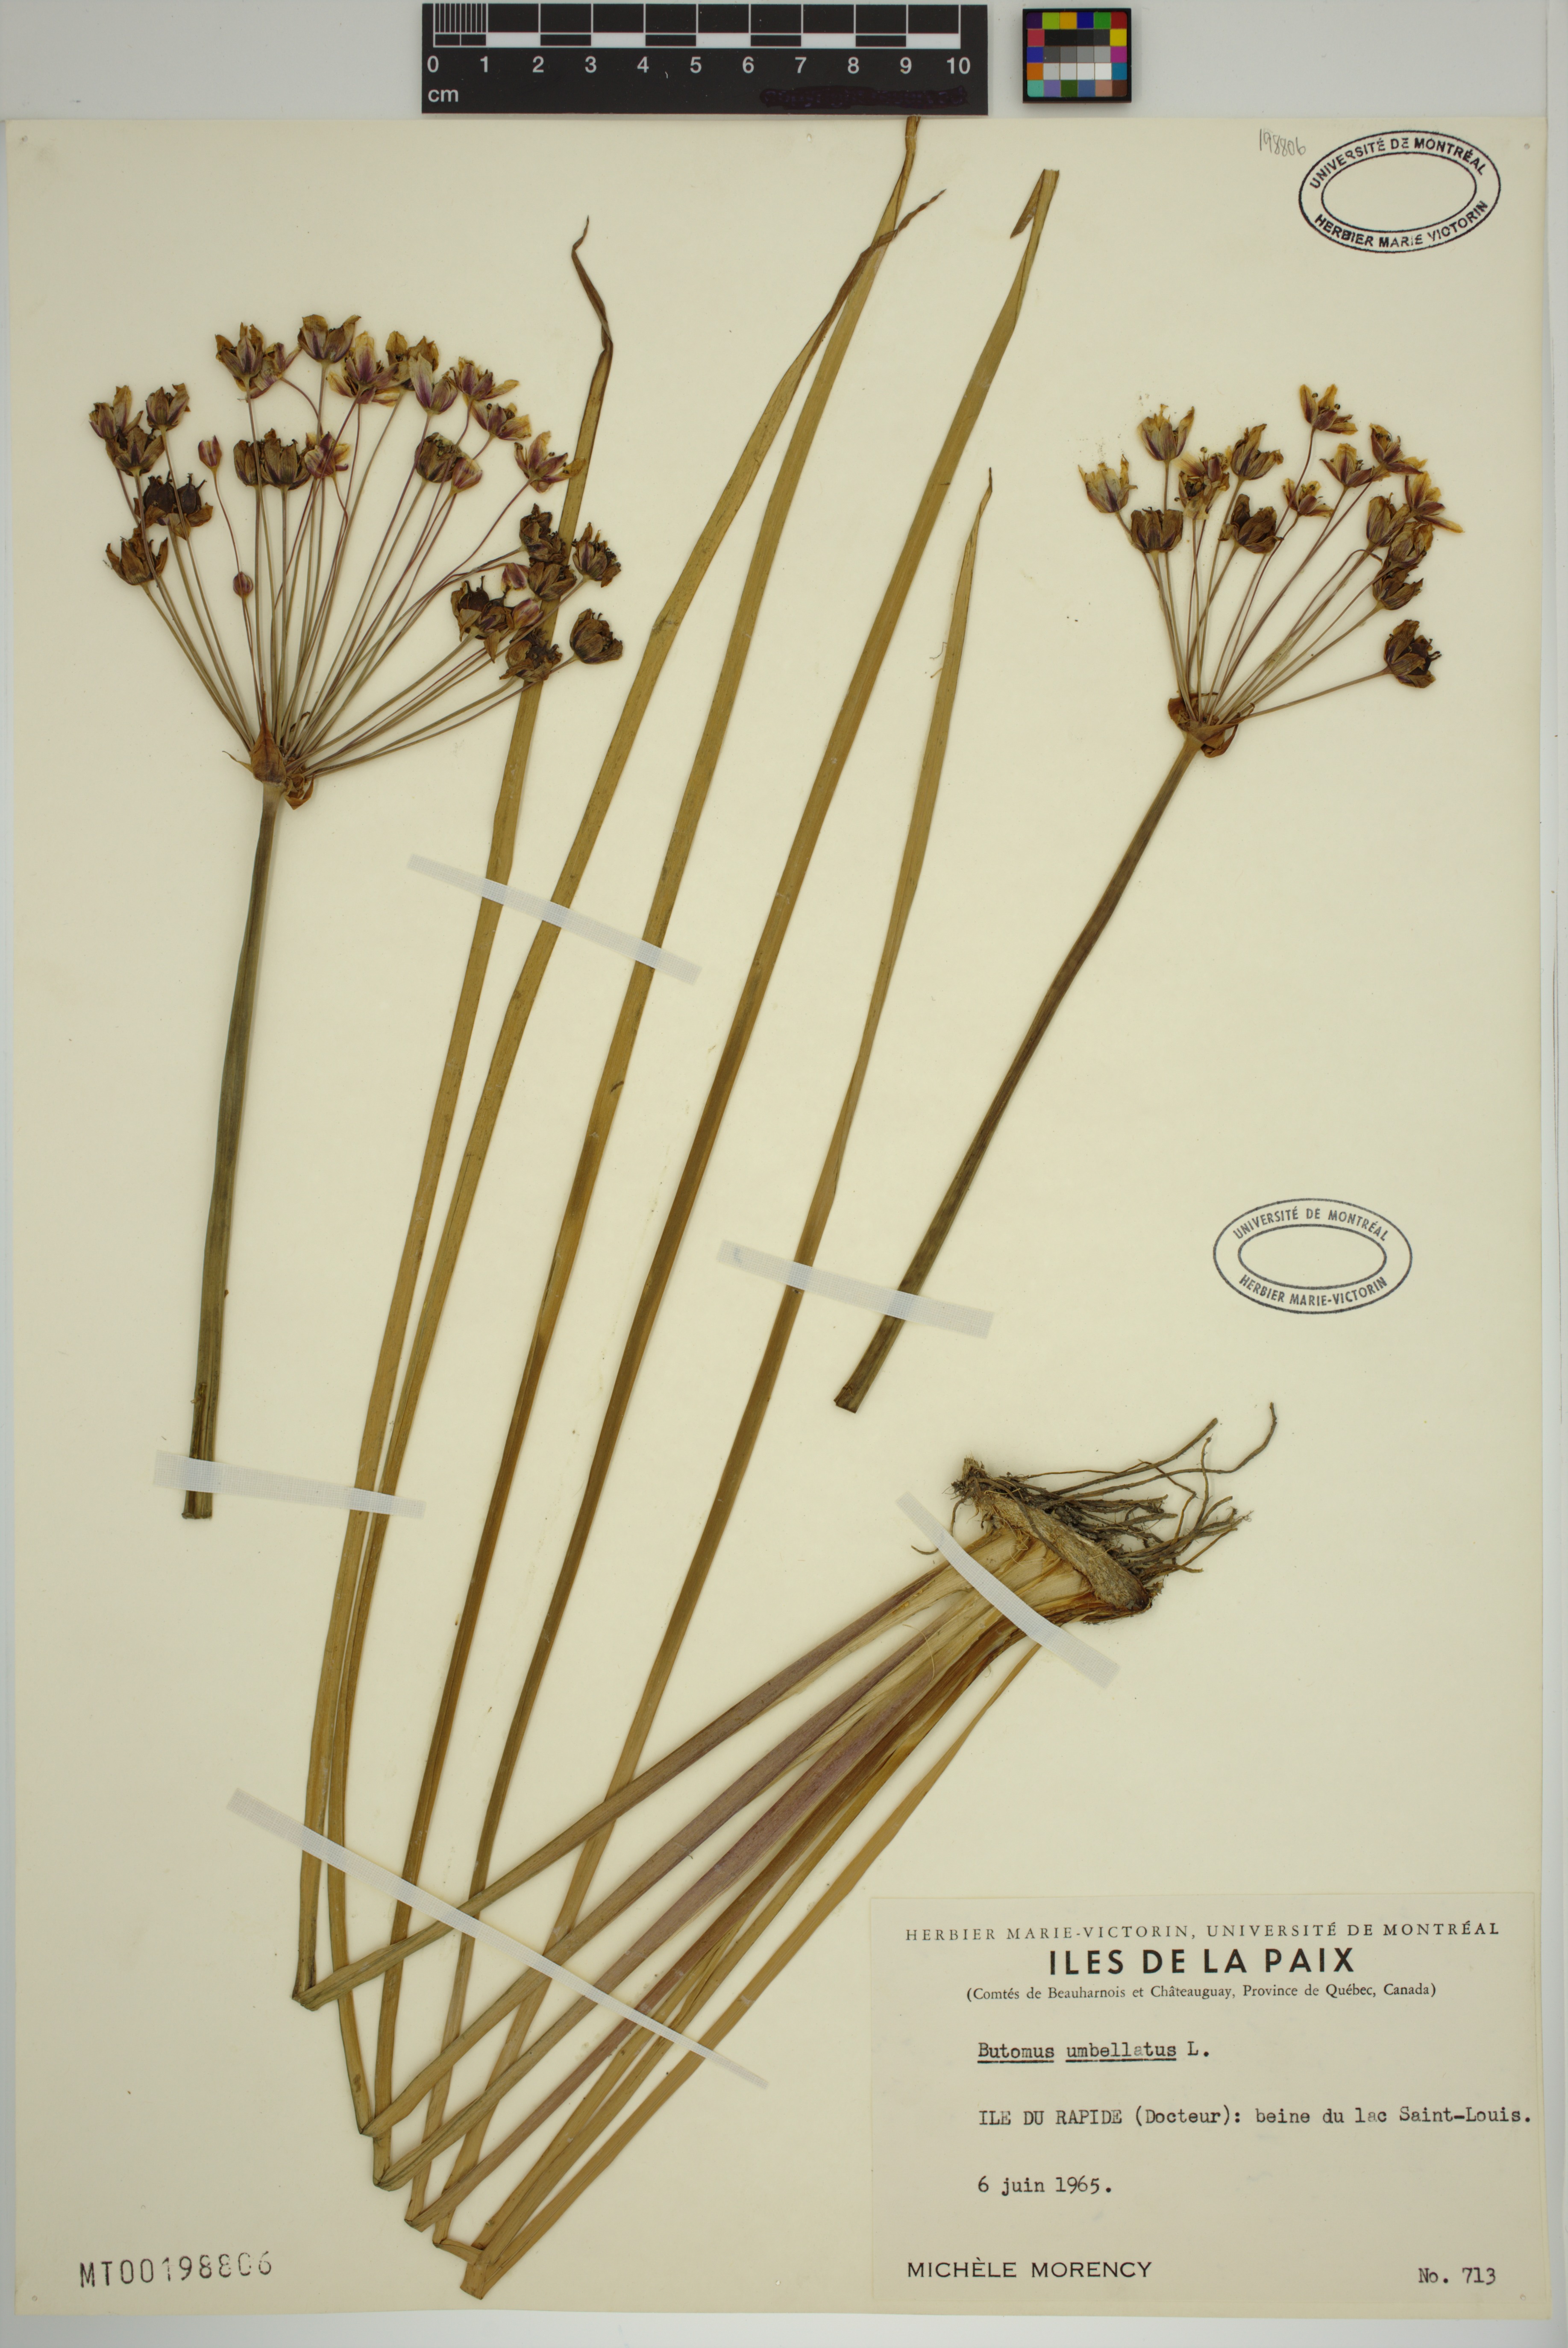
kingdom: Plantae
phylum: Tracheophyta
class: Liliopsida
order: Alismatales
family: Butomaceae
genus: Butomus
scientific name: Butomus umbellatus
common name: Flowering-rush
